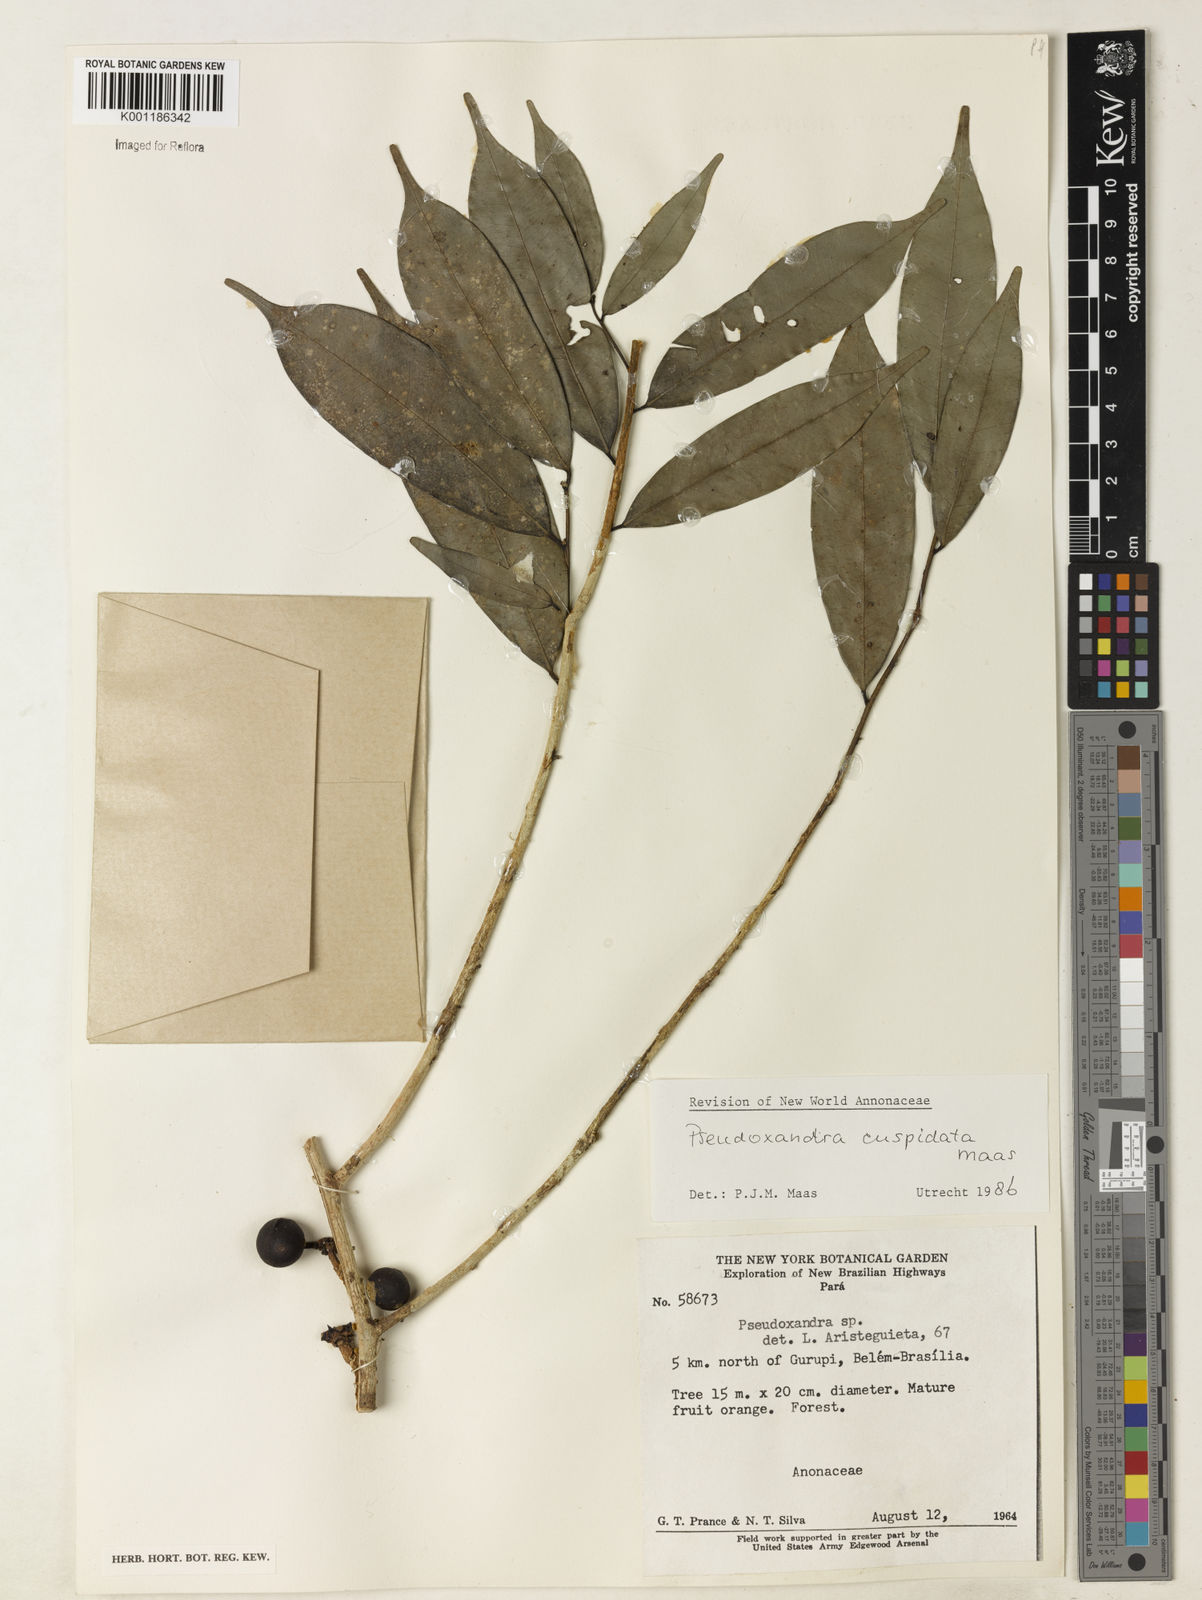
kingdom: Plantae
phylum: Tracheophyta
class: Magnoliopsida
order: Magnoliales
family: Annonaceae
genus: Pseudoxandra
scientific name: Pseudoxandra cuspidata
